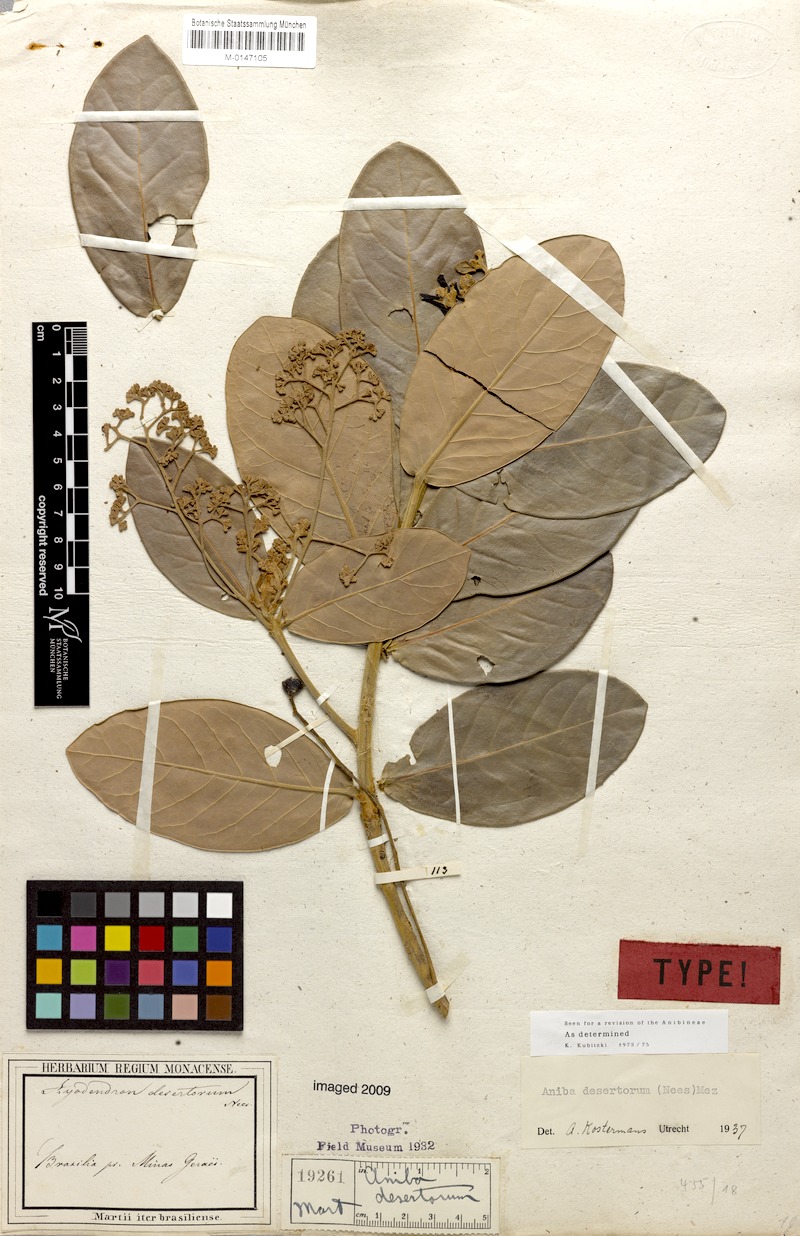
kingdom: Plantae
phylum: Tracheophyta
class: Magnoliopsida
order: Laurales
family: Lauraceae
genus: Aniba
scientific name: Aniba desertorum
